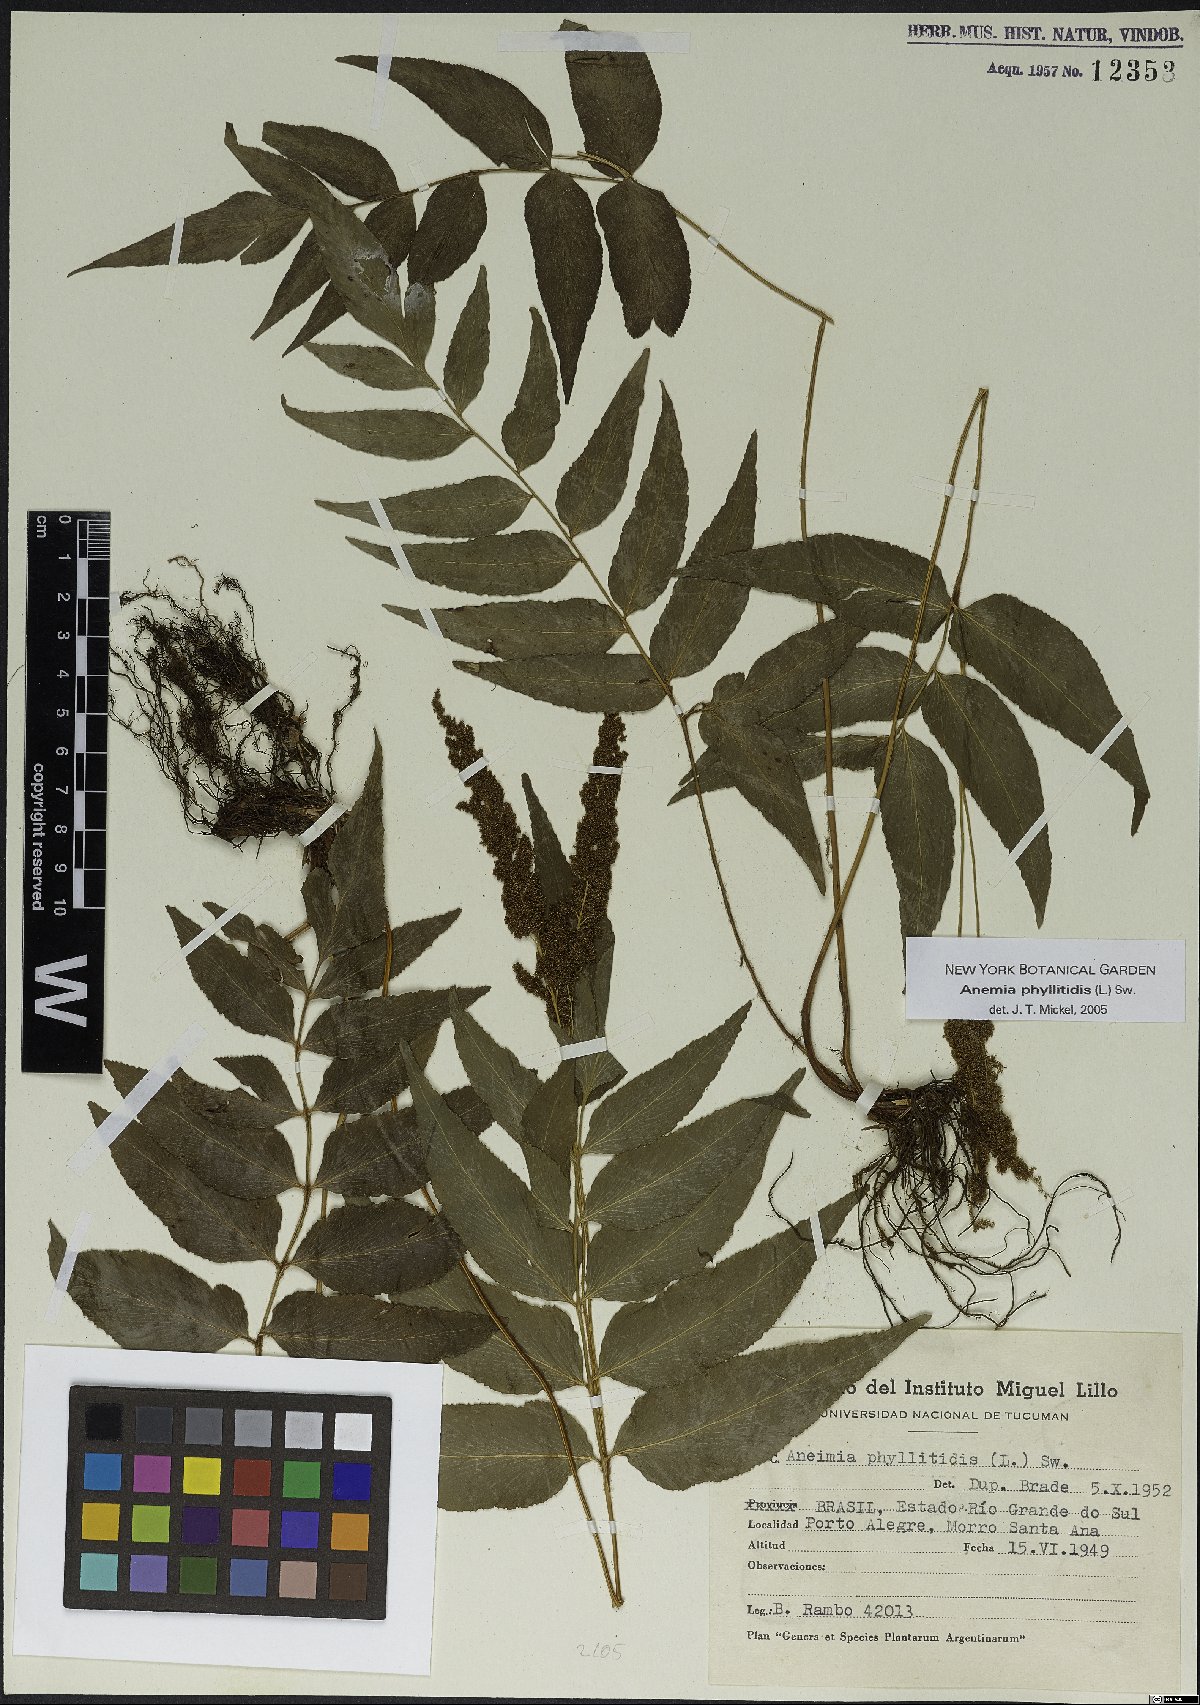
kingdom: Plantae
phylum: Tracheophyta
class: Polypodiopsida
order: Schizaeales
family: Anemiaceae
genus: Anemia
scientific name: Anemia phyllitidis
